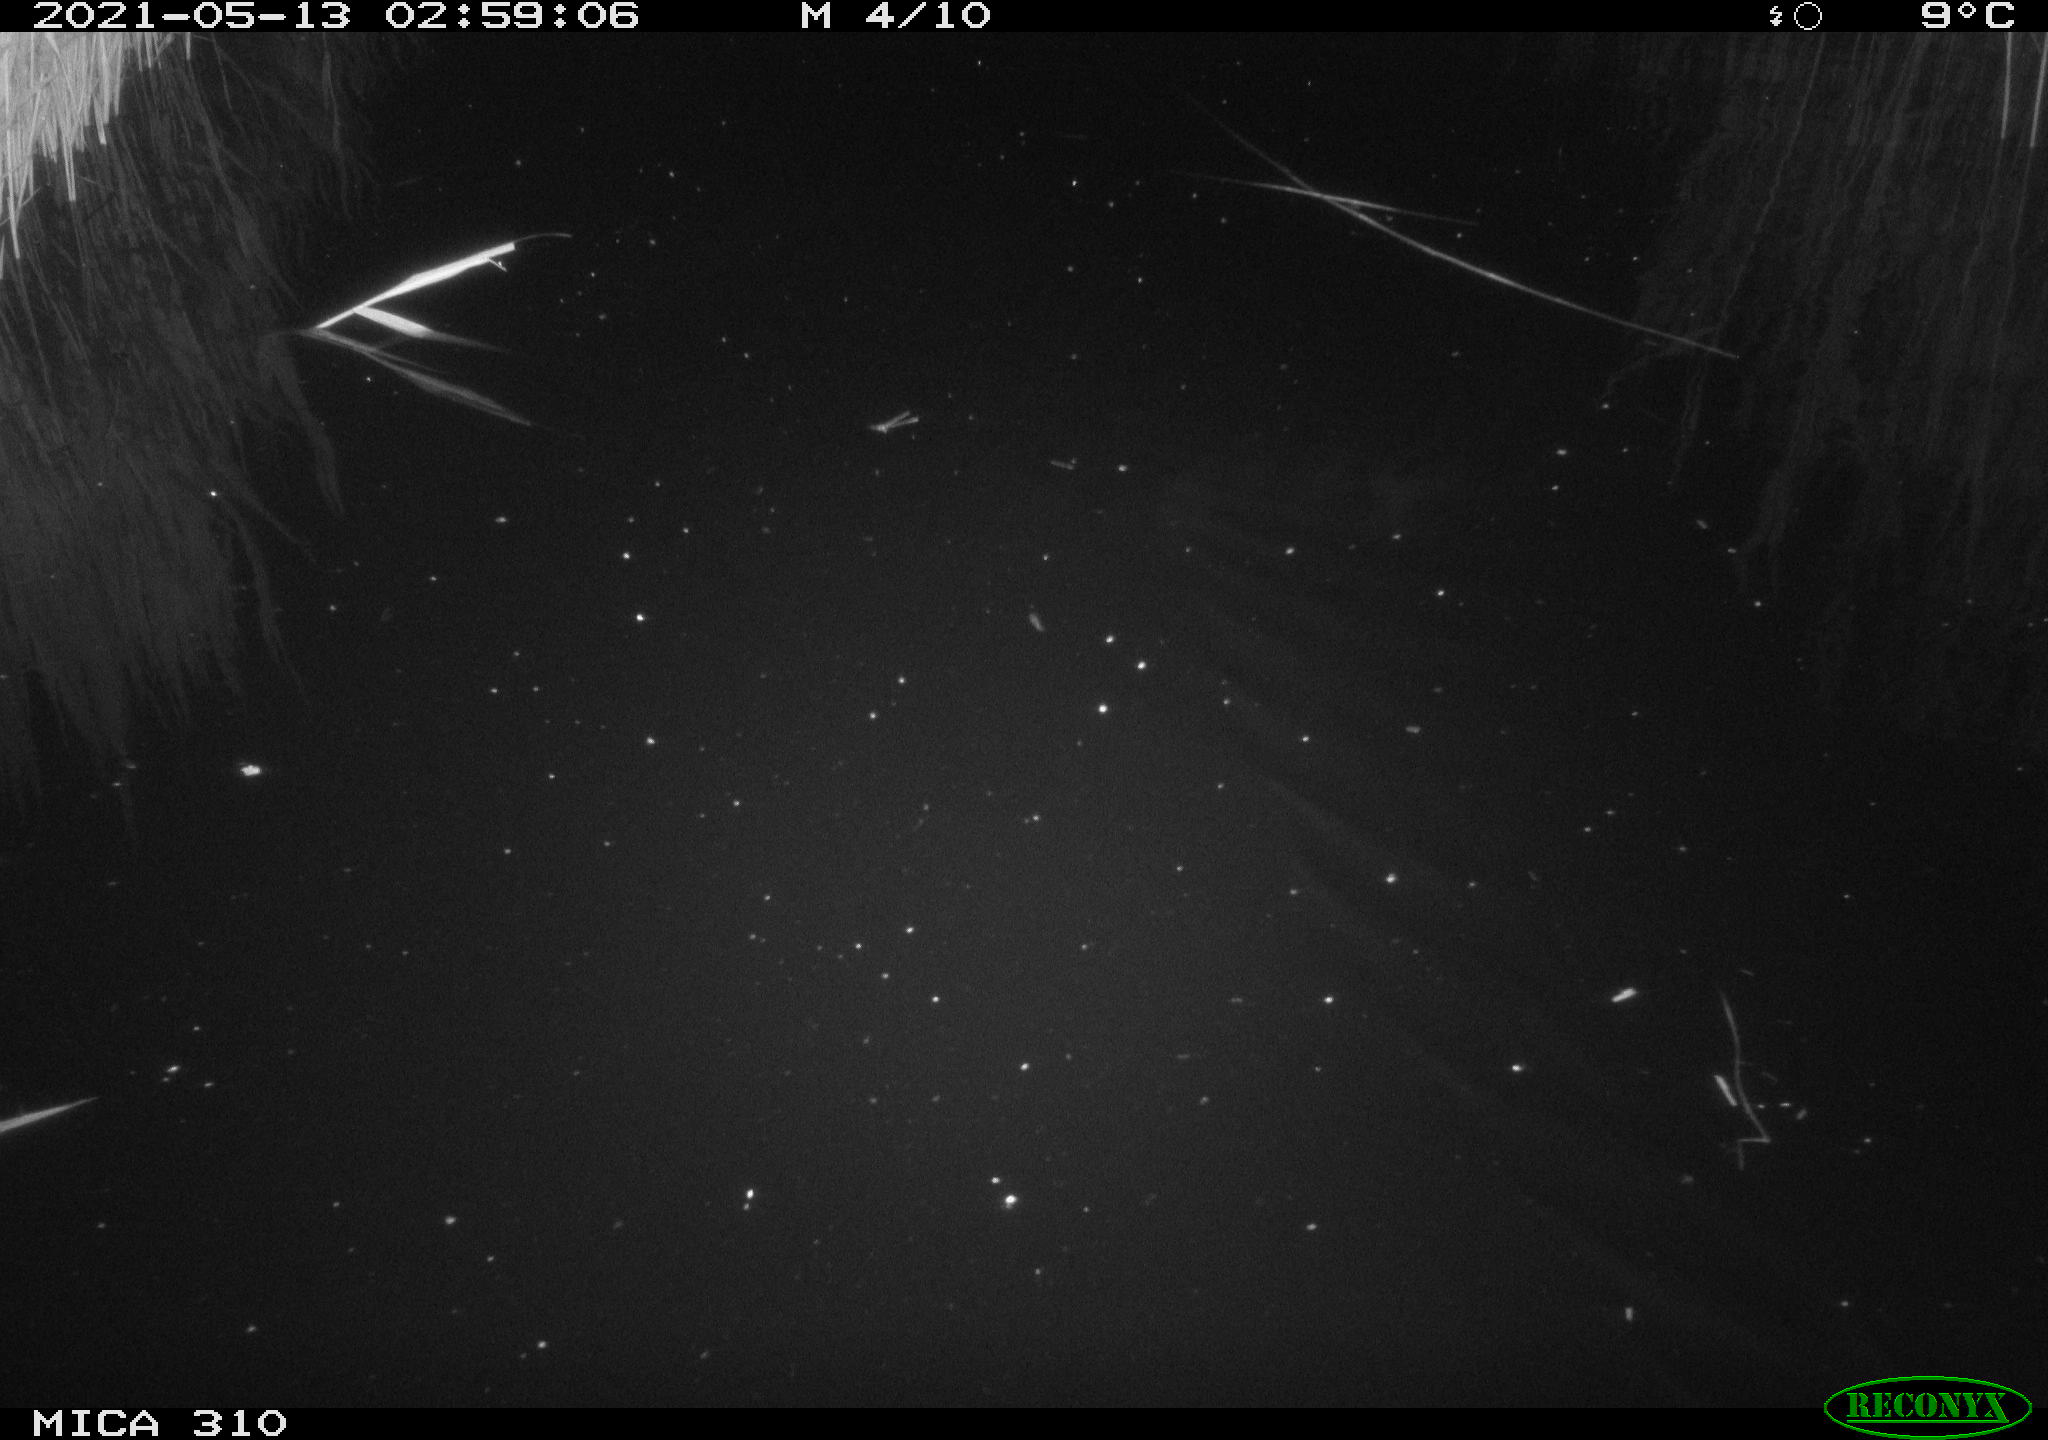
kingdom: Animalia
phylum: Chordata
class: Aves
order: Anseriformes
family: Anatidae
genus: Anas
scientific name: Anas platyrhynchos
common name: Mallard
